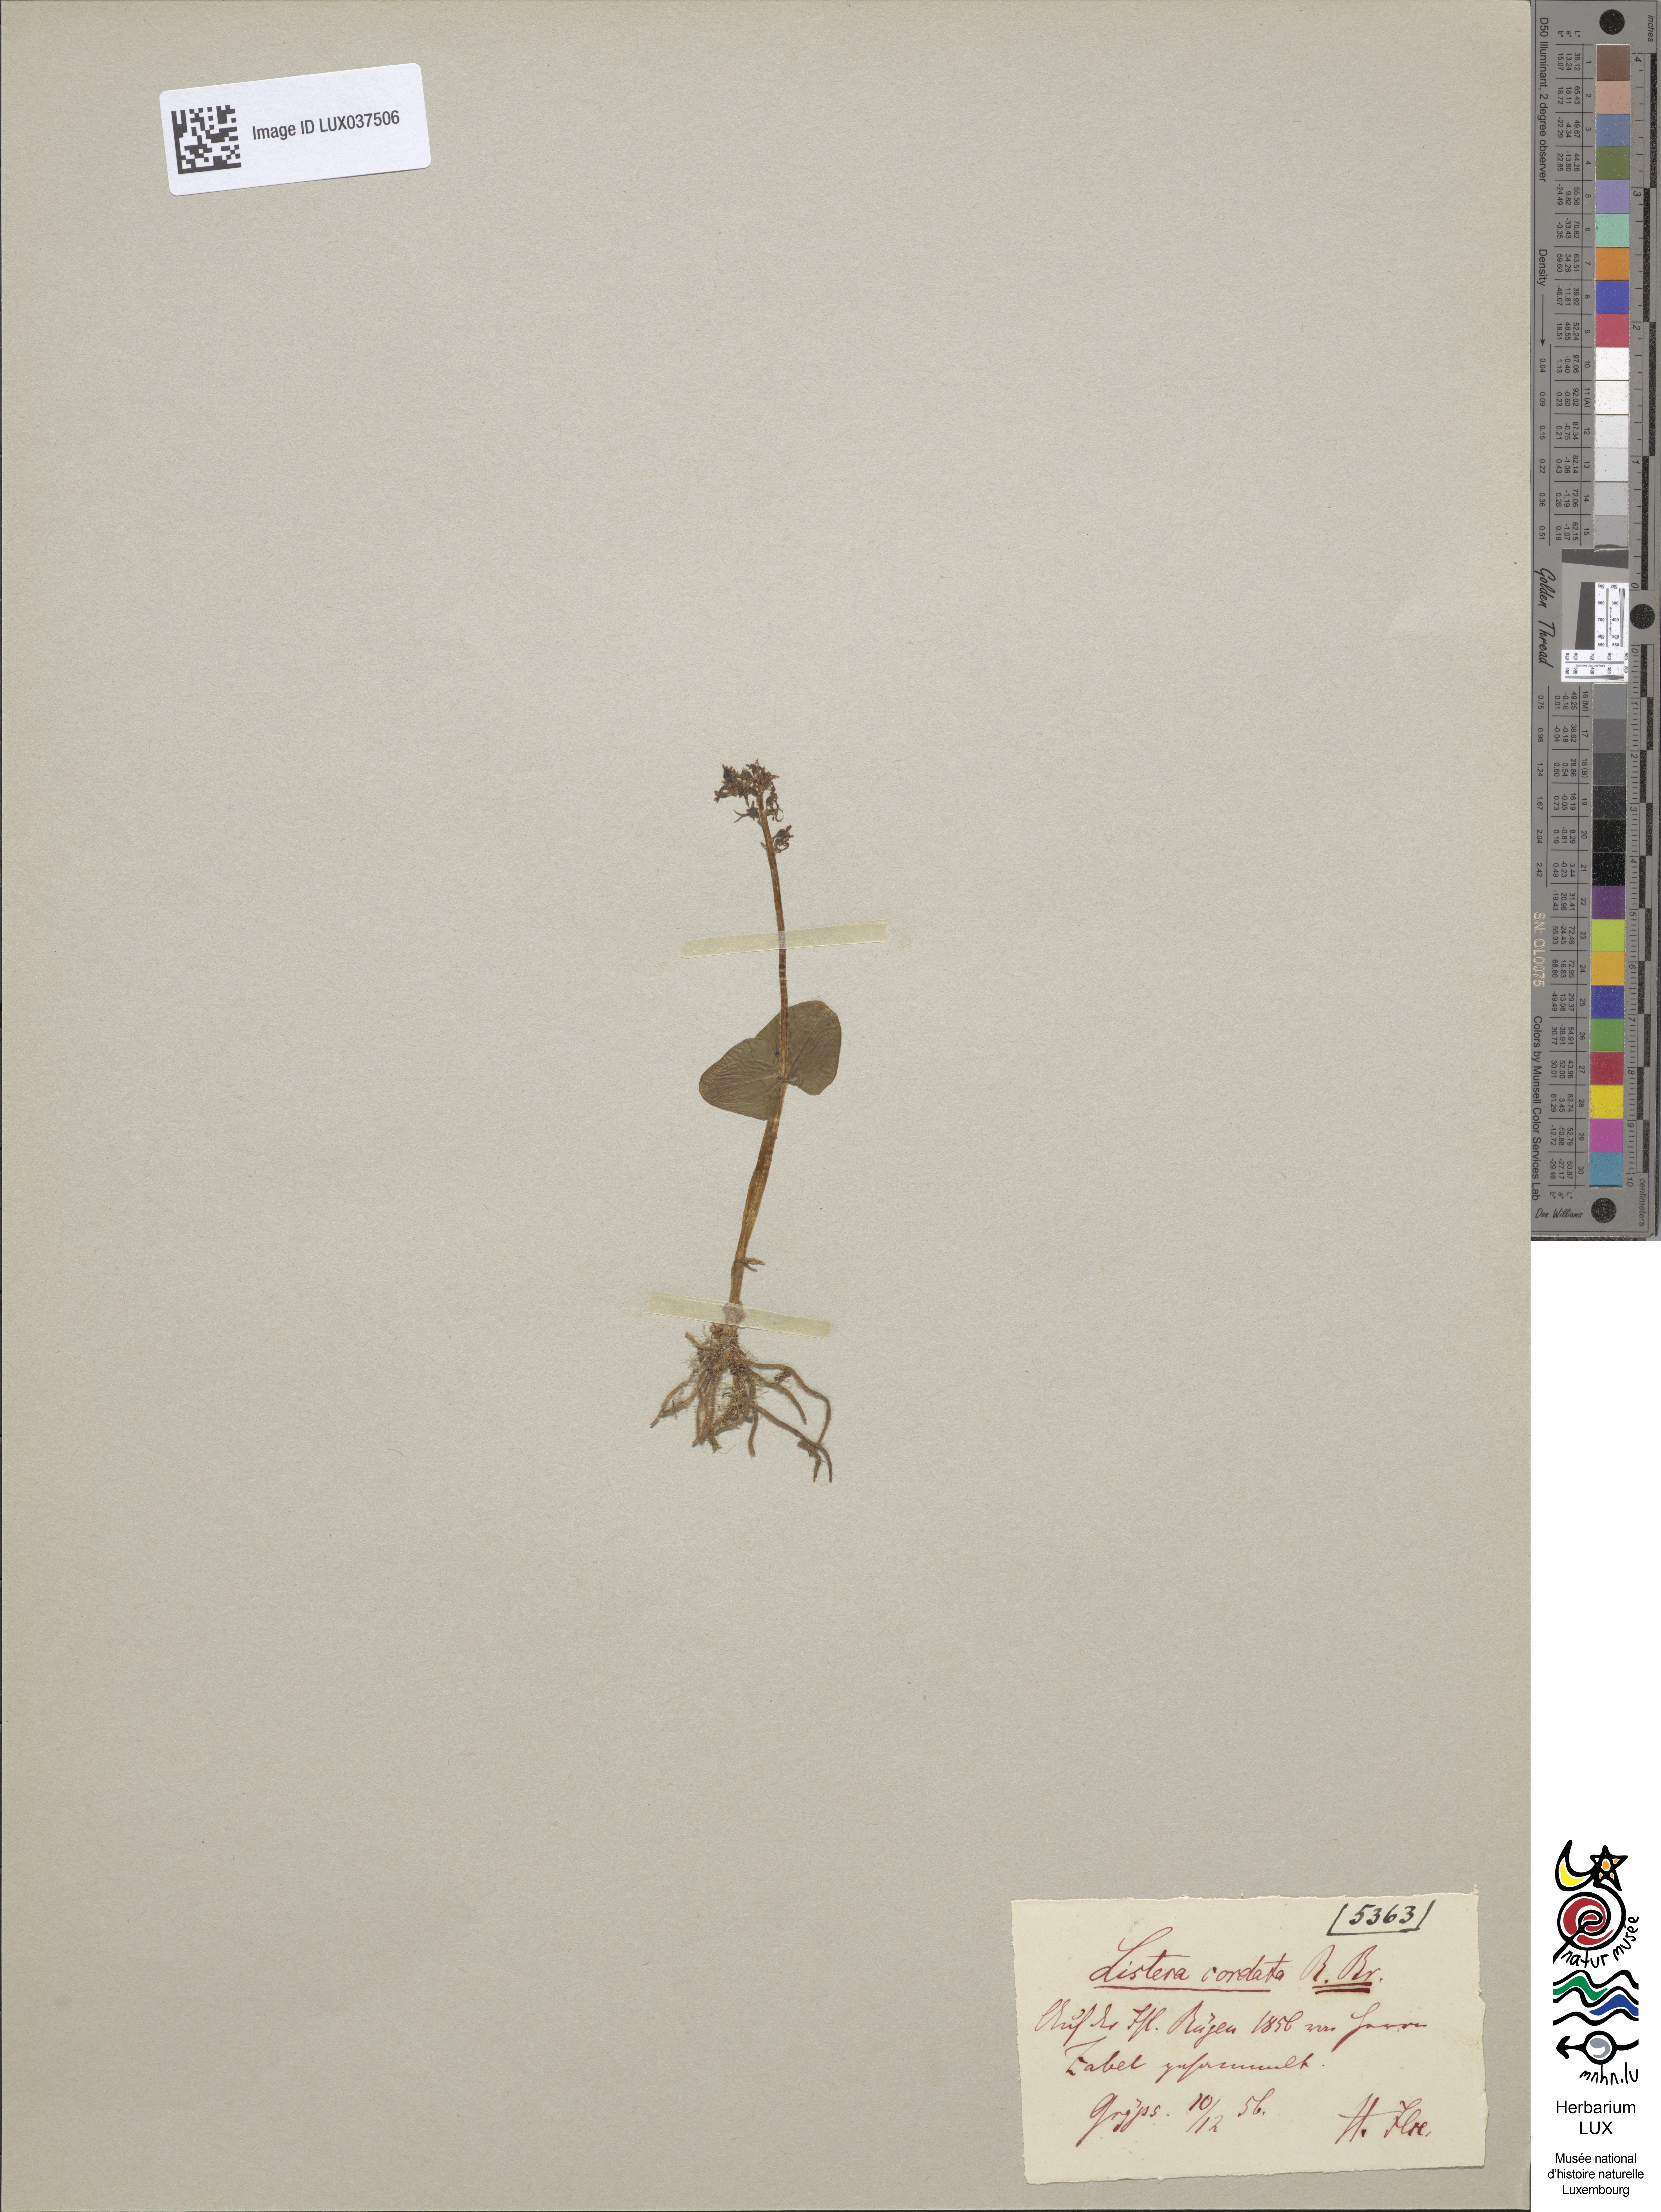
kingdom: Plantae
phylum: Tracheophyta
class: Liliopsida
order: Asparagales
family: Orchidaceae
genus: Neottia
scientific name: Neottia cordata
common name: Lesser twayblade
